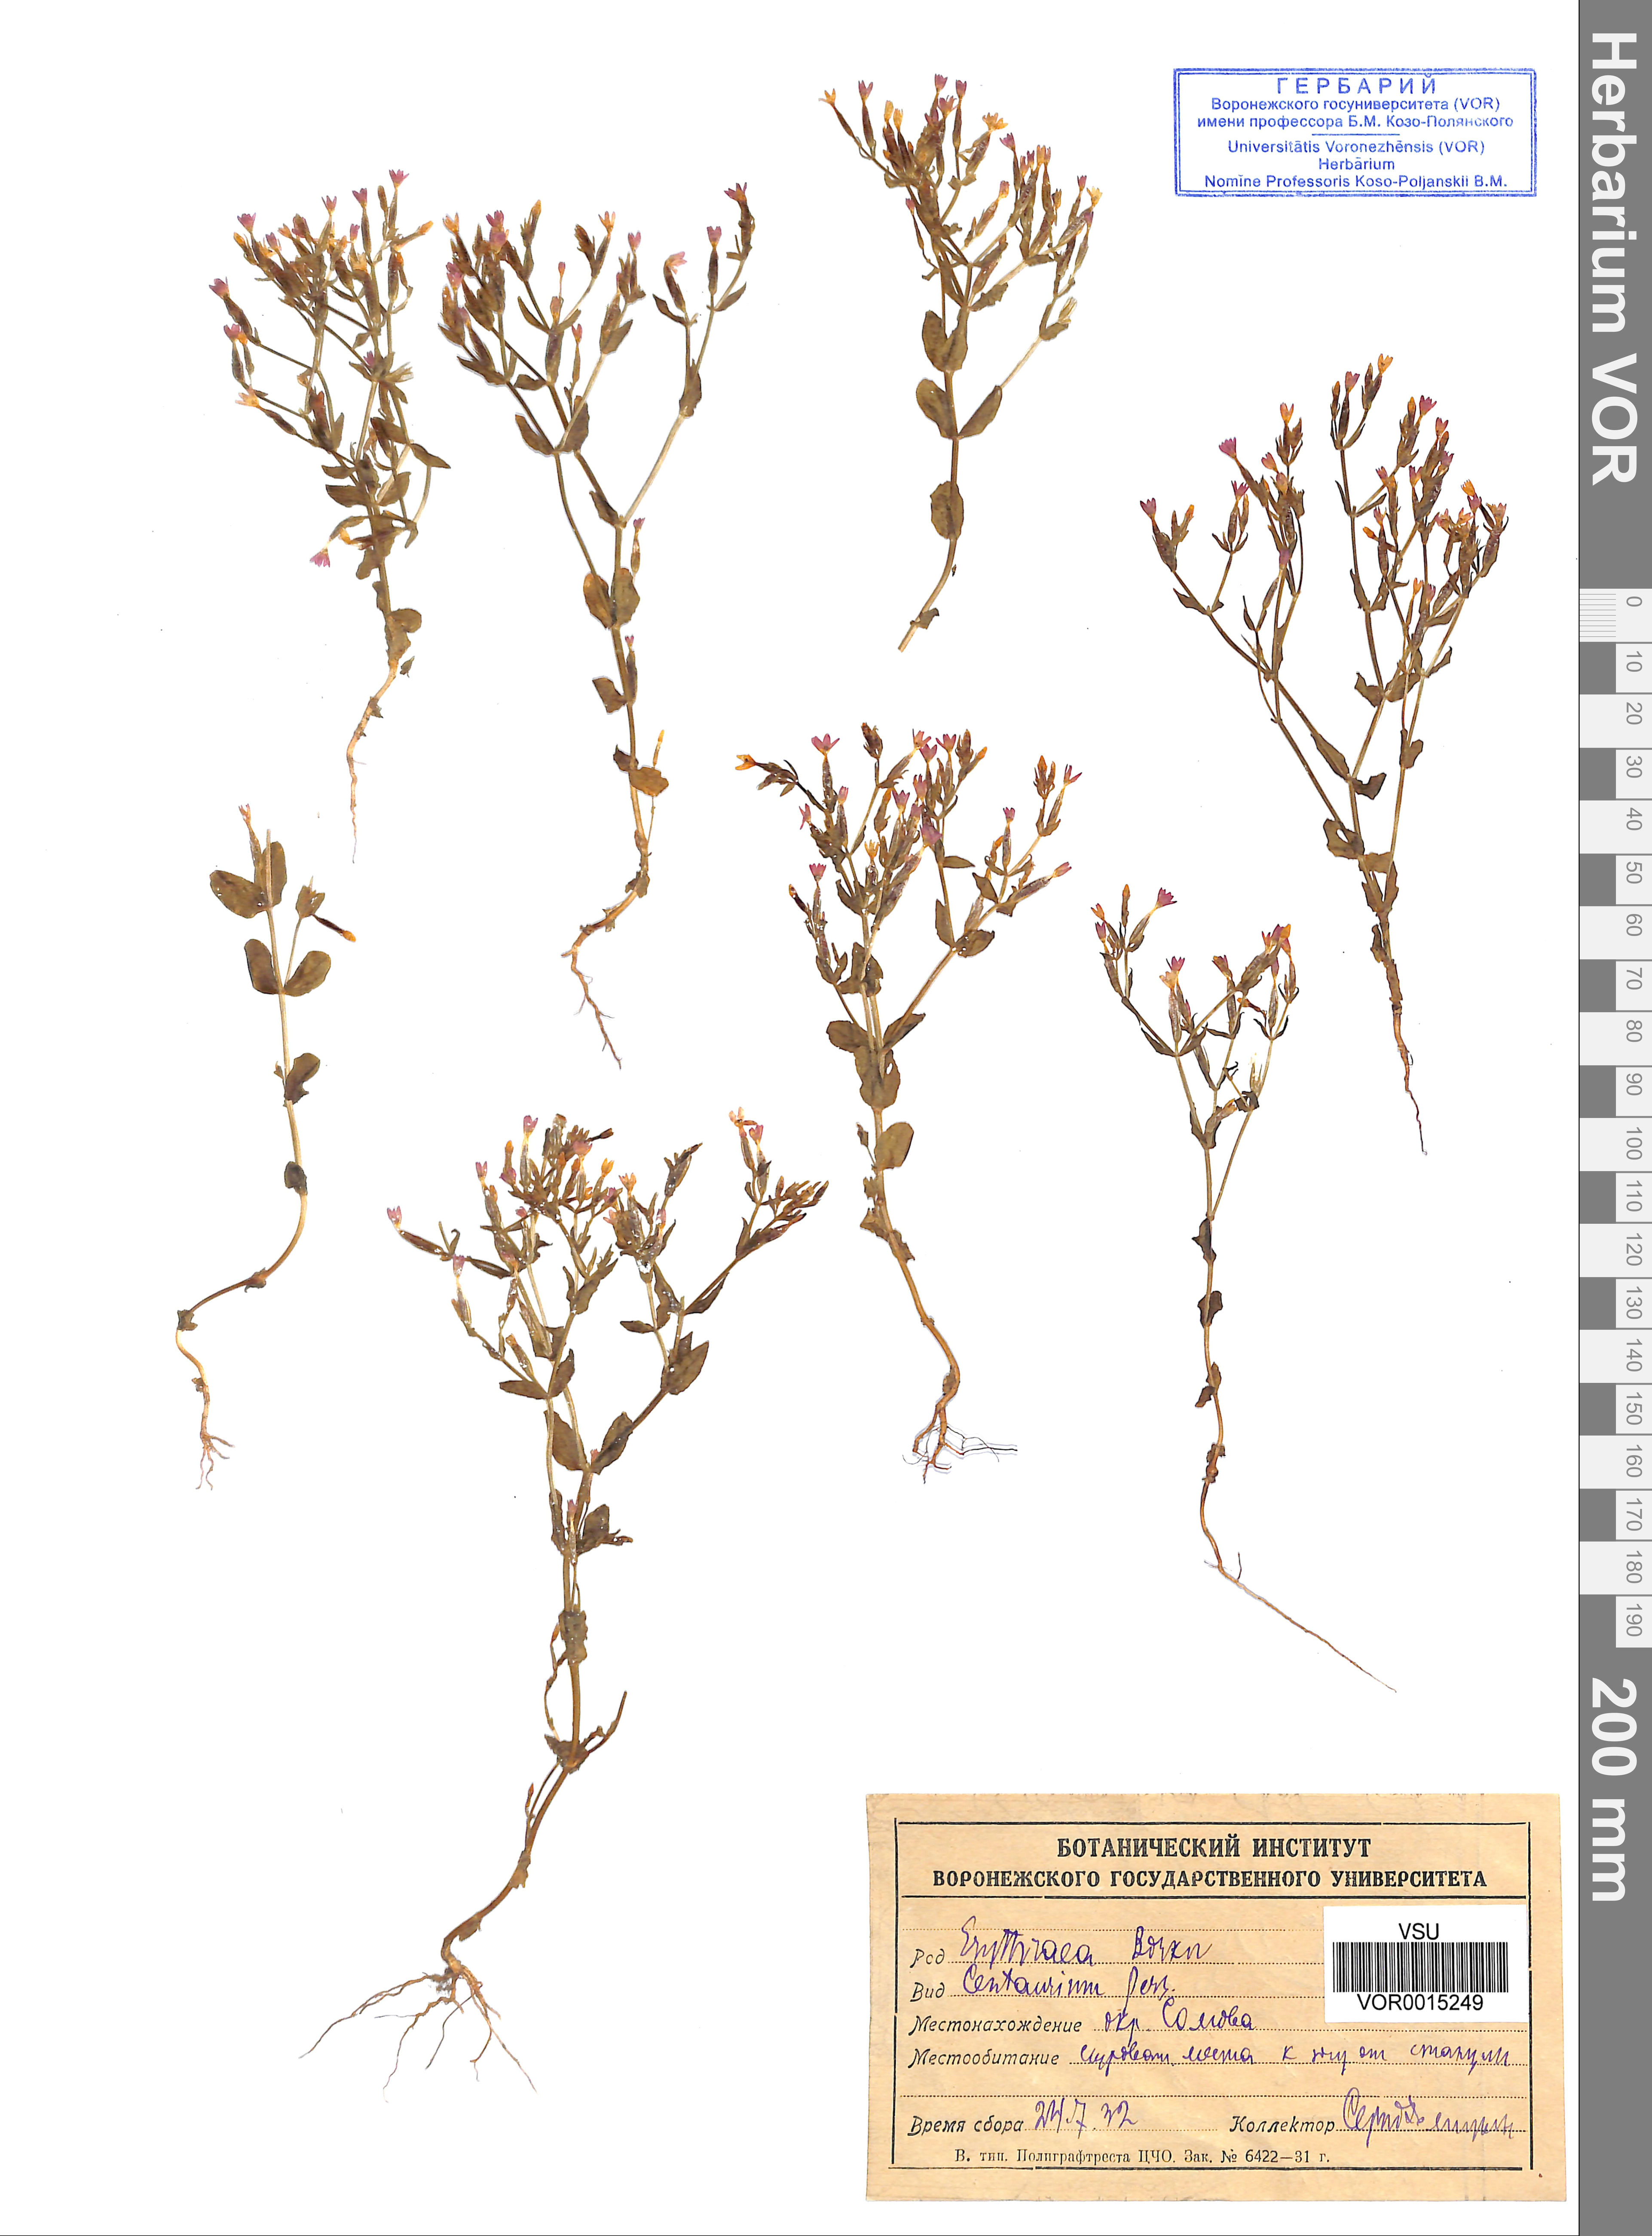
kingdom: Plantae
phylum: Tracheophyta
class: Magnoliopsida
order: Gentianales
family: Gentianaceae
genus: Centaurium
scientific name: Centaurium erythraea
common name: Common centaury
